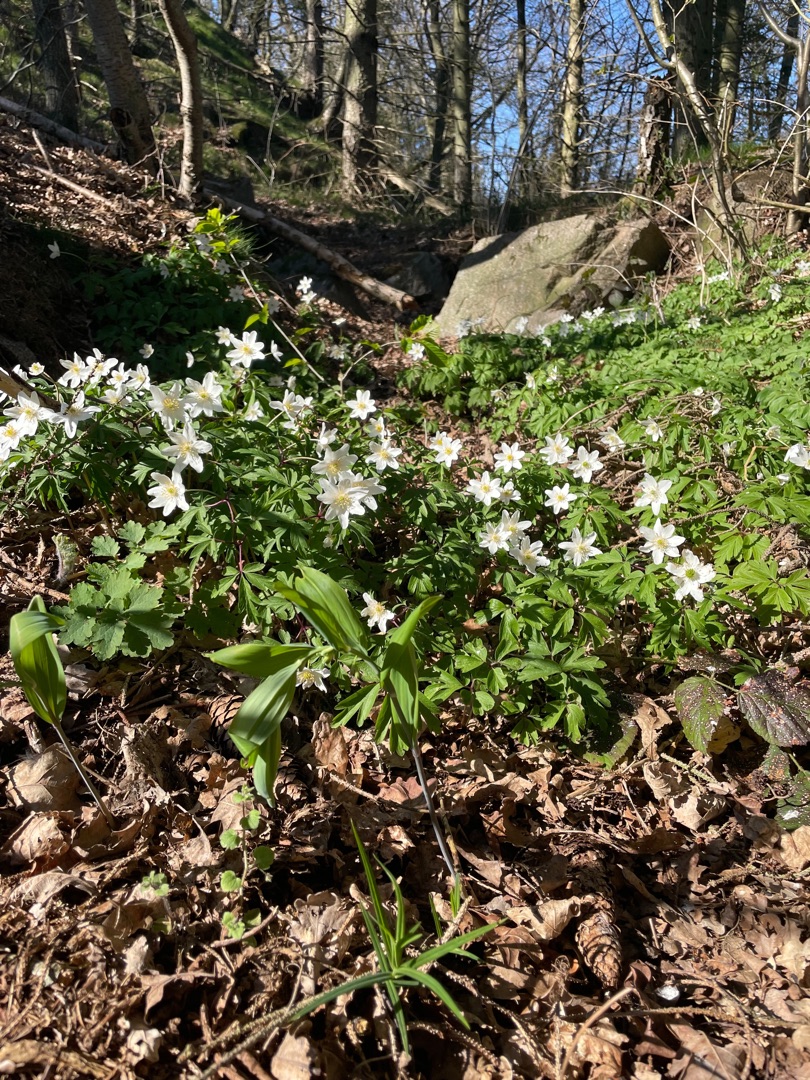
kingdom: Plantae
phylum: Tracheophyta
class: Magnoliopsida
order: Ranunculales
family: Ranunculaceae
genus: Anemone
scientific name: Anemone nemorosa
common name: Hvid anemone
